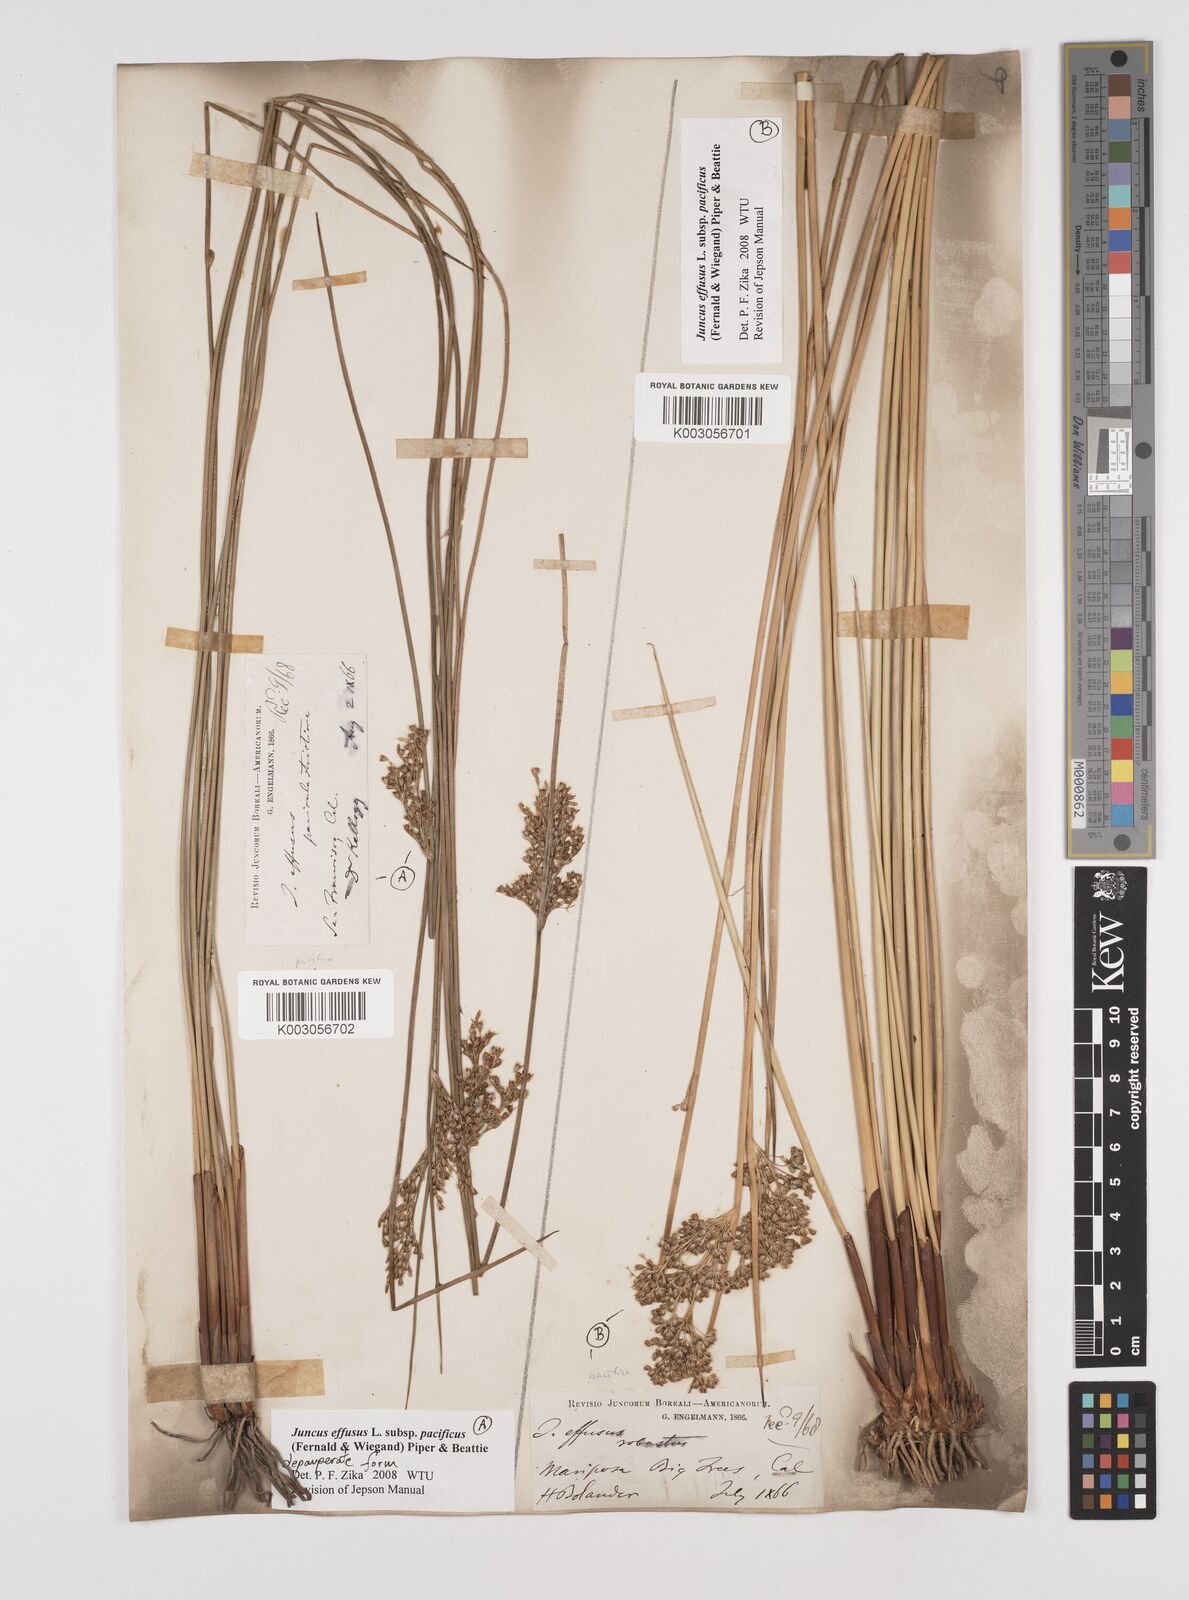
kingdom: Plantae
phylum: Tracheophyta
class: Liliopsida
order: Poales
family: Juncaceae
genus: Juncus
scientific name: Juncus effusus
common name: Soft rush
